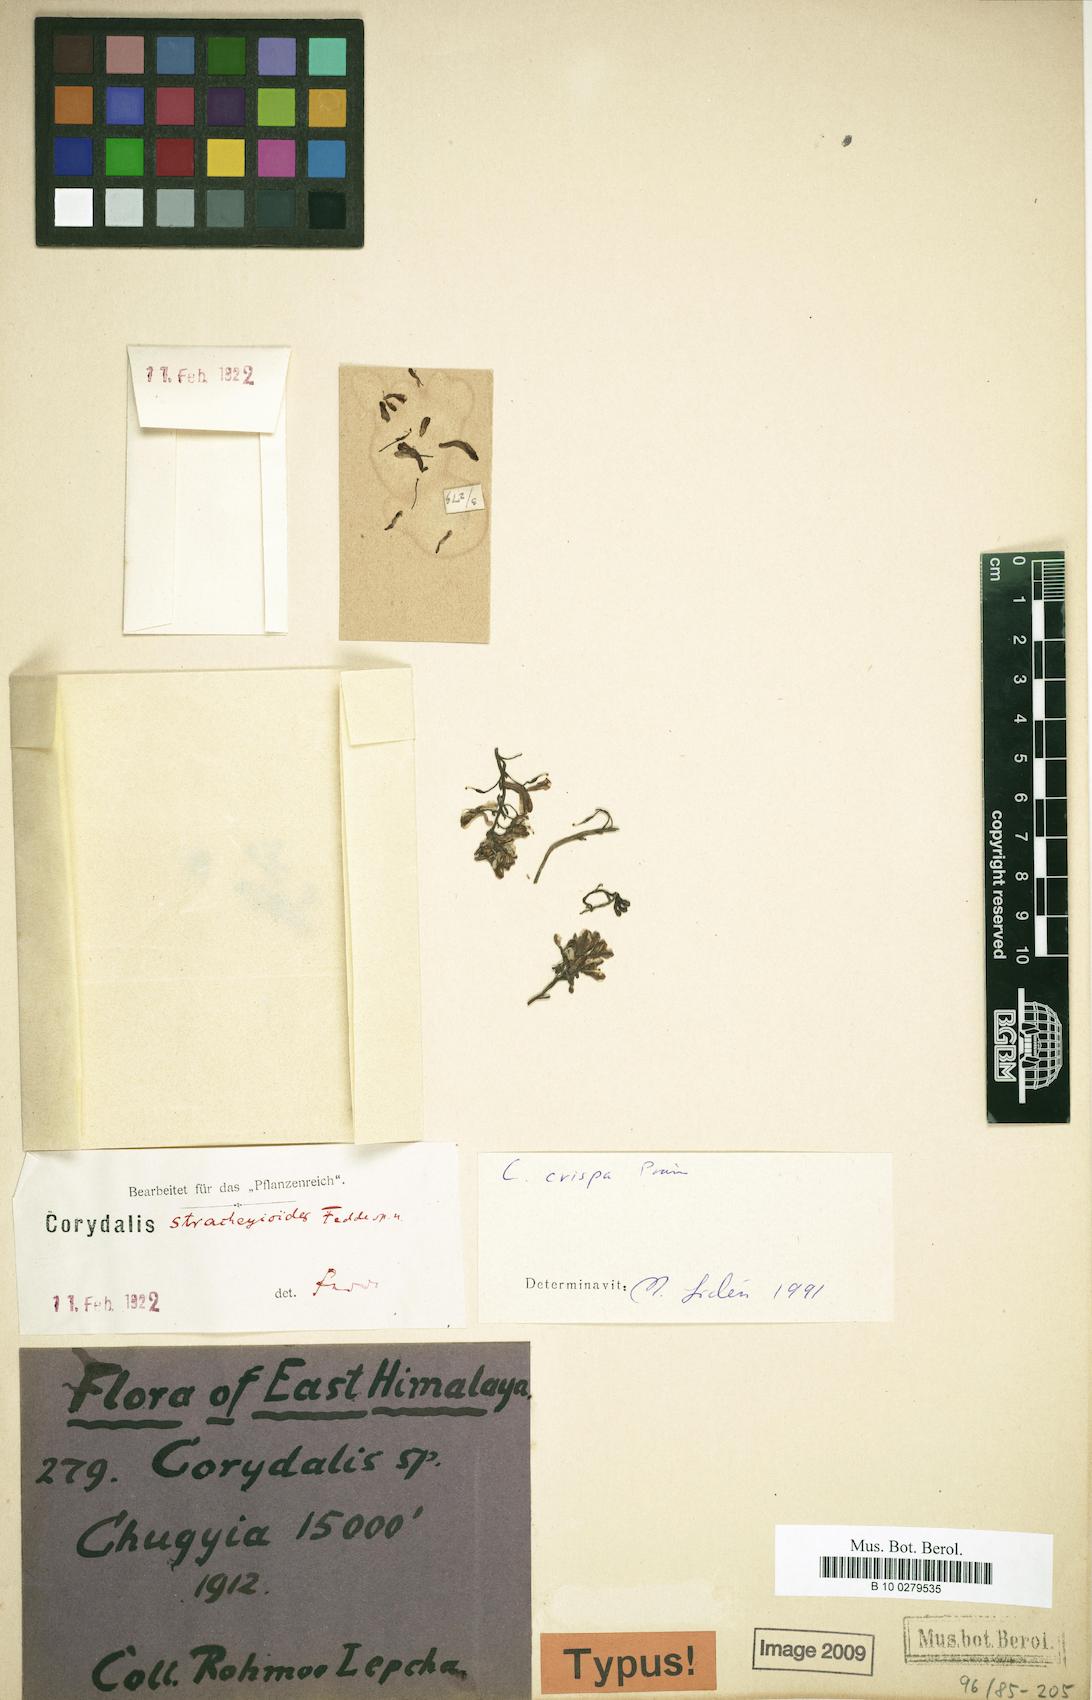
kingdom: Plantae
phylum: Tracheophyta
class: Magnoliopsida
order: Ranunculales
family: Papaveraceae
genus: Corydalis
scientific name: Corydalis crispa
